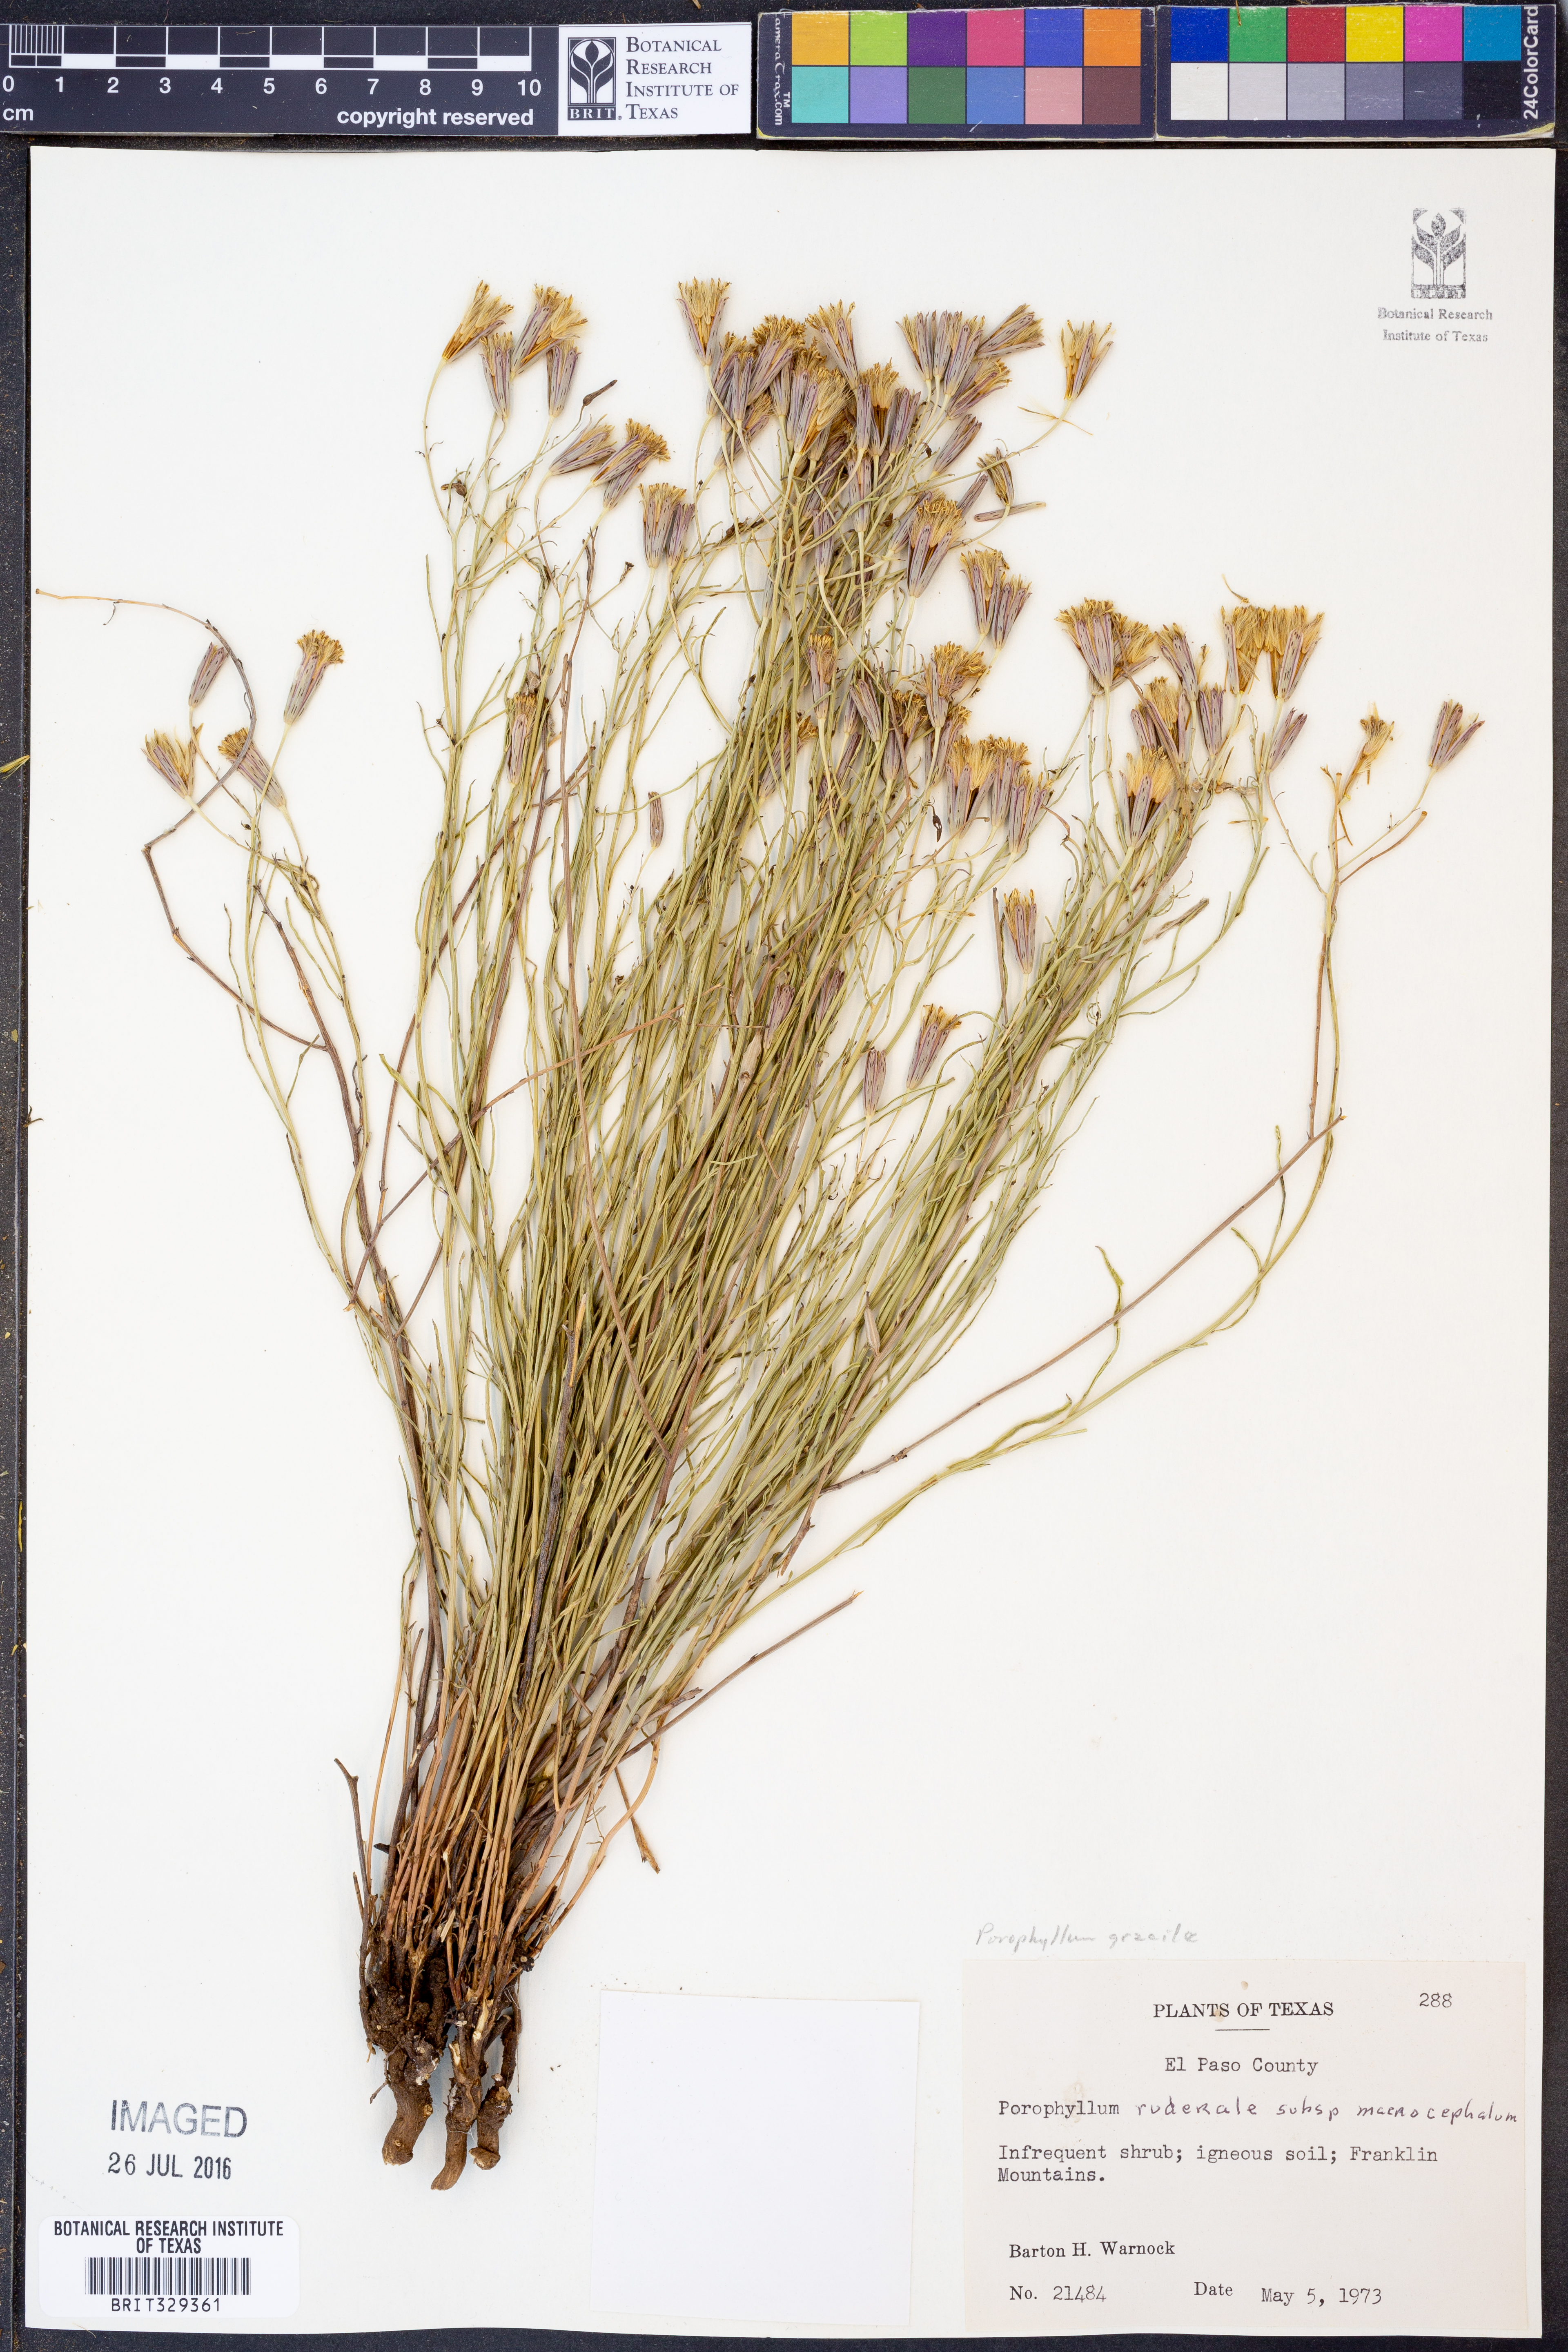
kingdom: Plantae
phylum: Tracheophyta
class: Magnoliopsida
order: Asterales
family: Asteraceae
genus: Porophyllum
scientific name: Porophyllum gracile
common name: Odora
